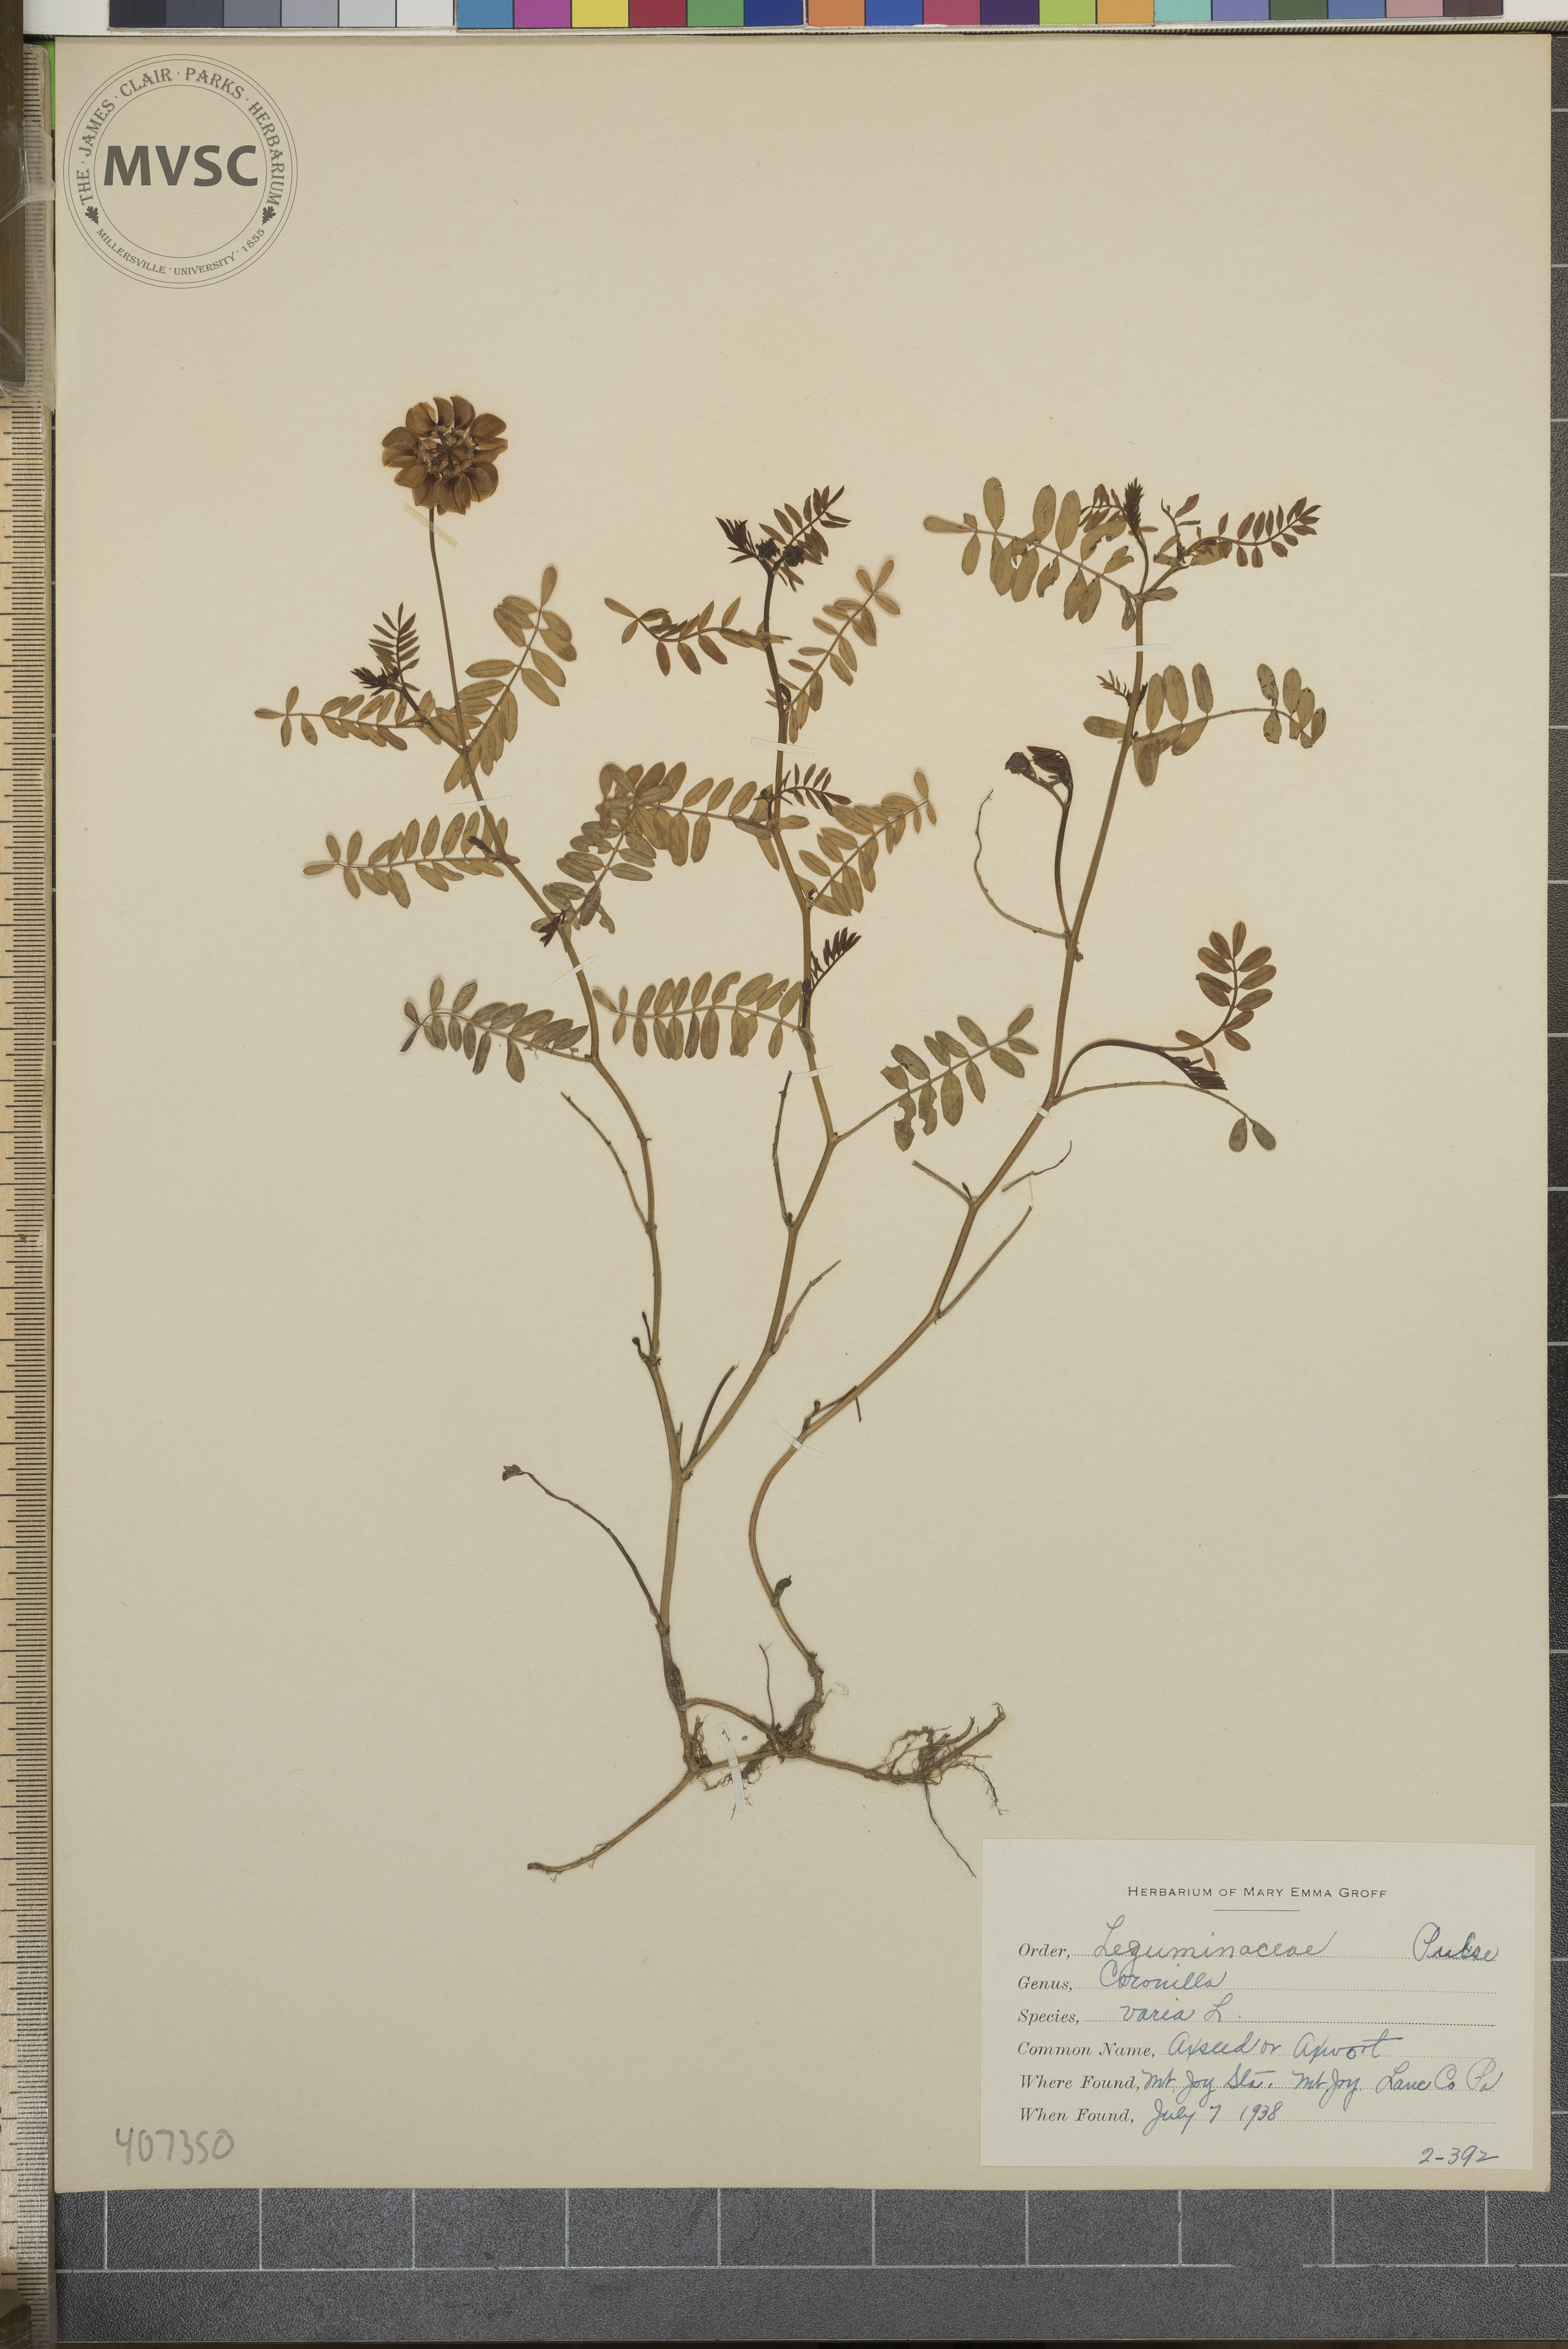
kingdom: Plantae
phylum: Tracheophyta
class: Magnoliopsida
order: Fabales
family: Fabaceae
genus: Coronilla
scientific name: Coronilla varia
